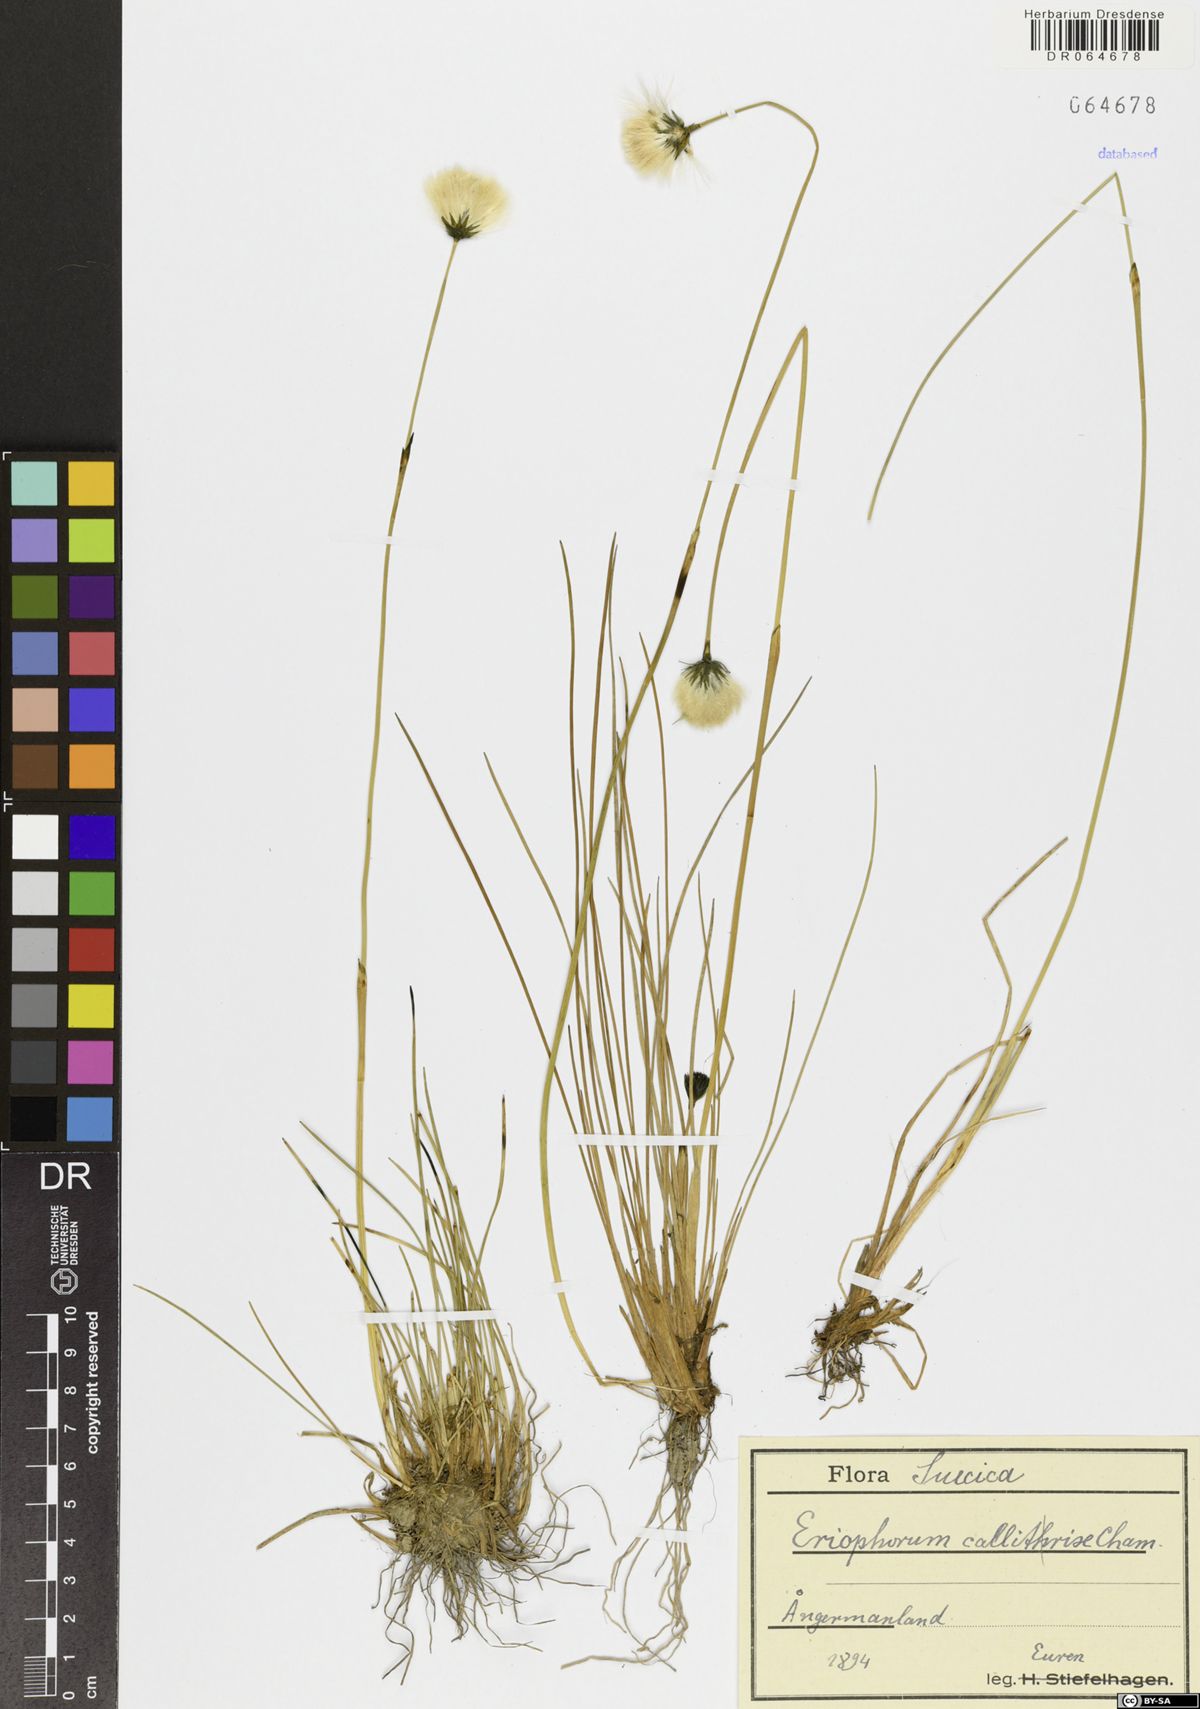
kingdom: Plantae
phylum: Tracheophyta
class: Liliopsida
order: Poales
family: Cyperaceae
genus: Eriophorum
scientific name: Eriophorum callitrix
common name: Arctic cottongrass
